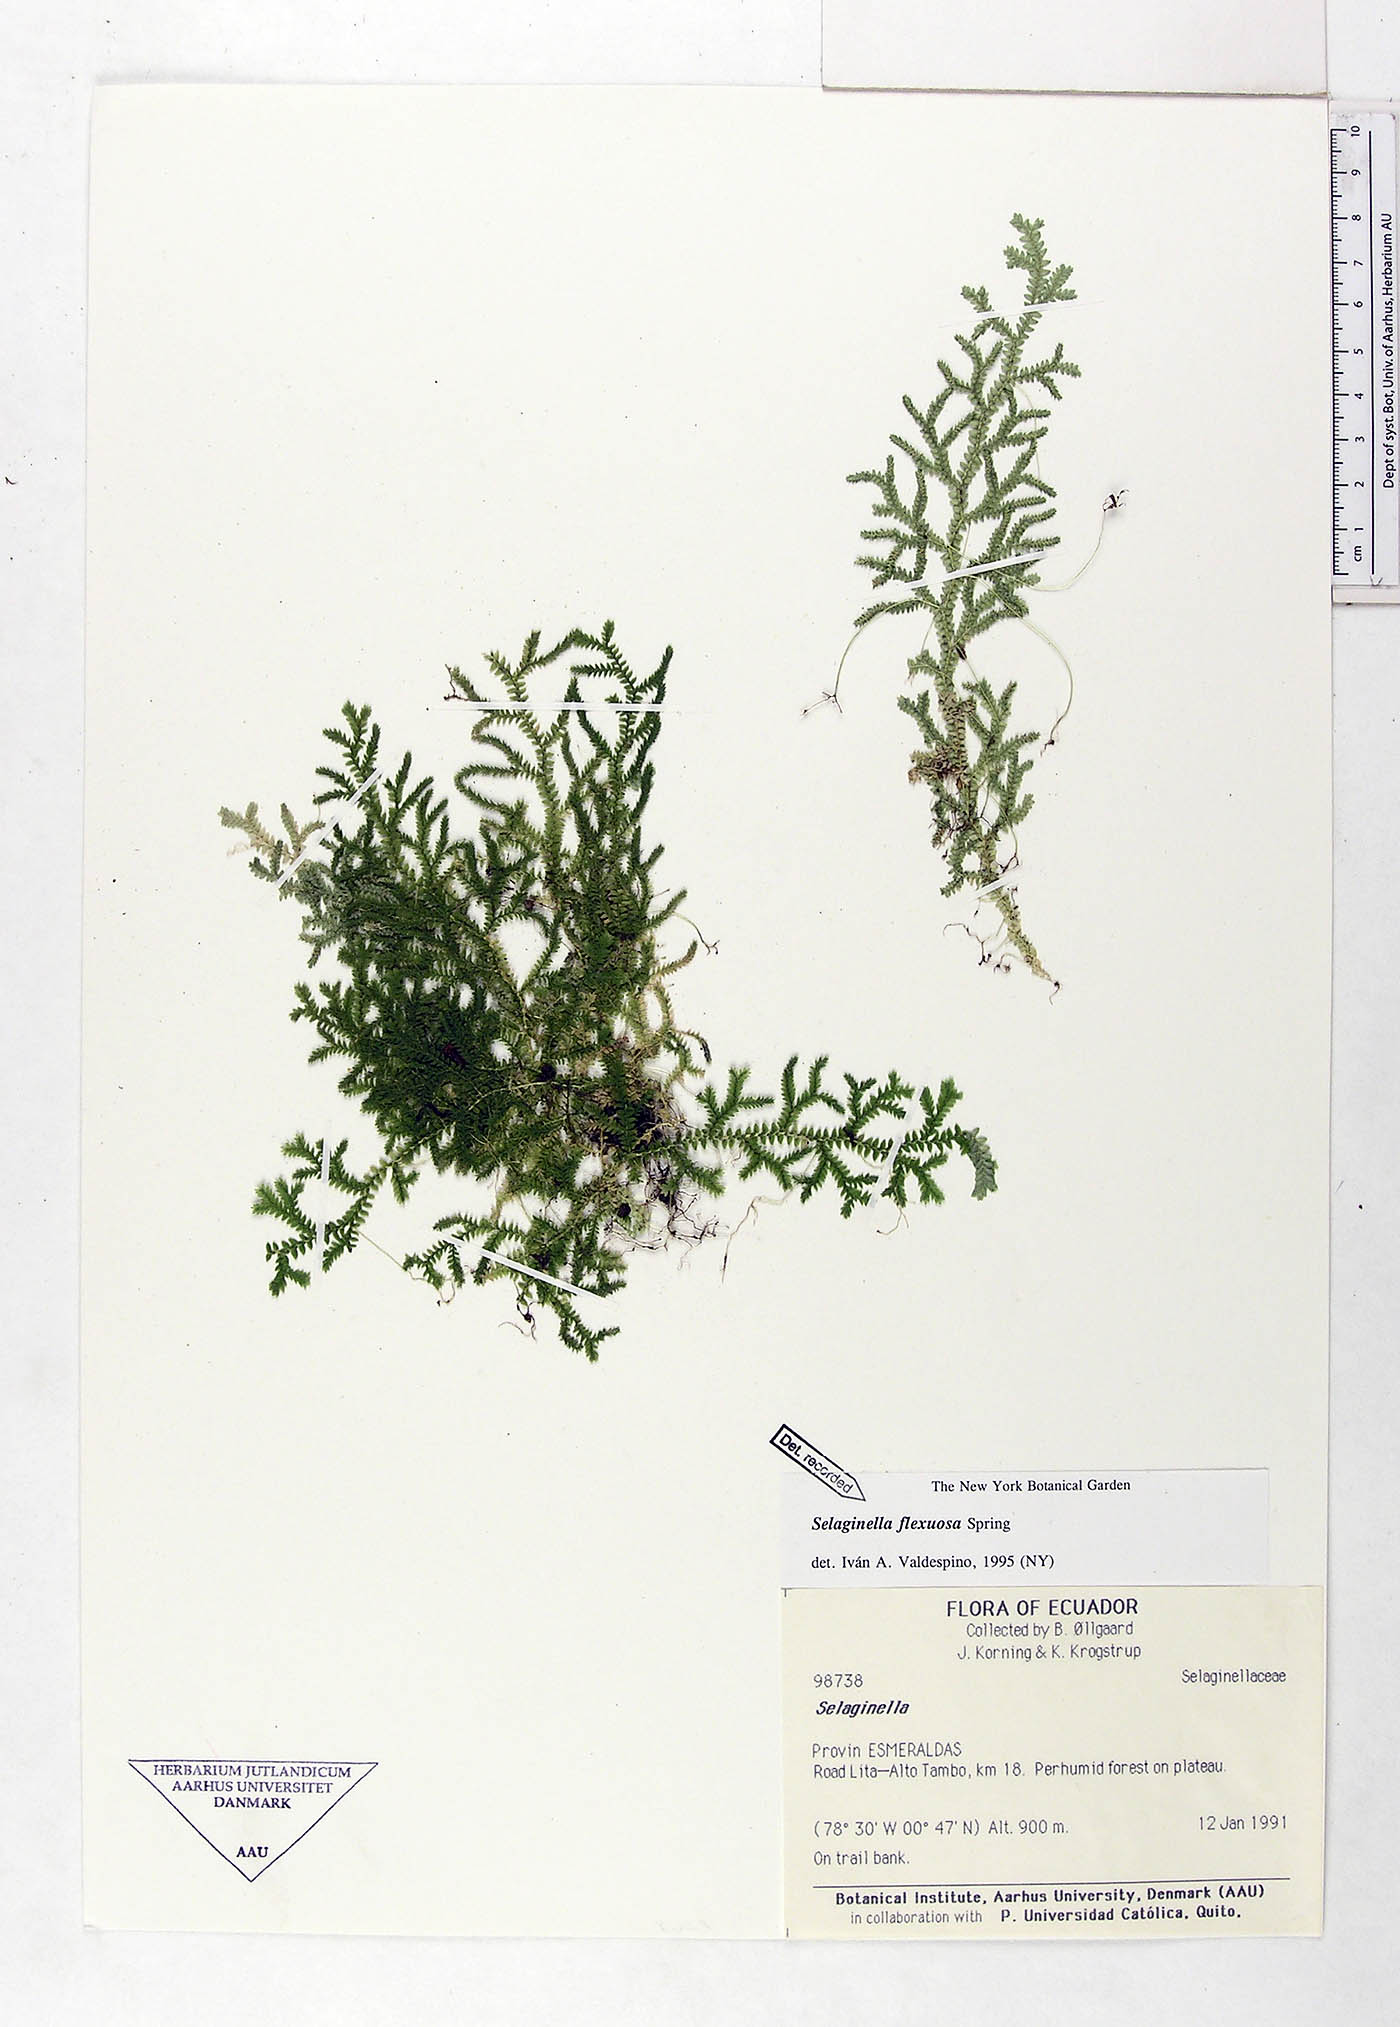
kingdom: Plantae
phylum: Tracheophyta
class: Lycopodiopsida
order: Selaginellales
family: Selaginellaceae
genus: Selaginella
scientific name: Selaginella flexuosa
